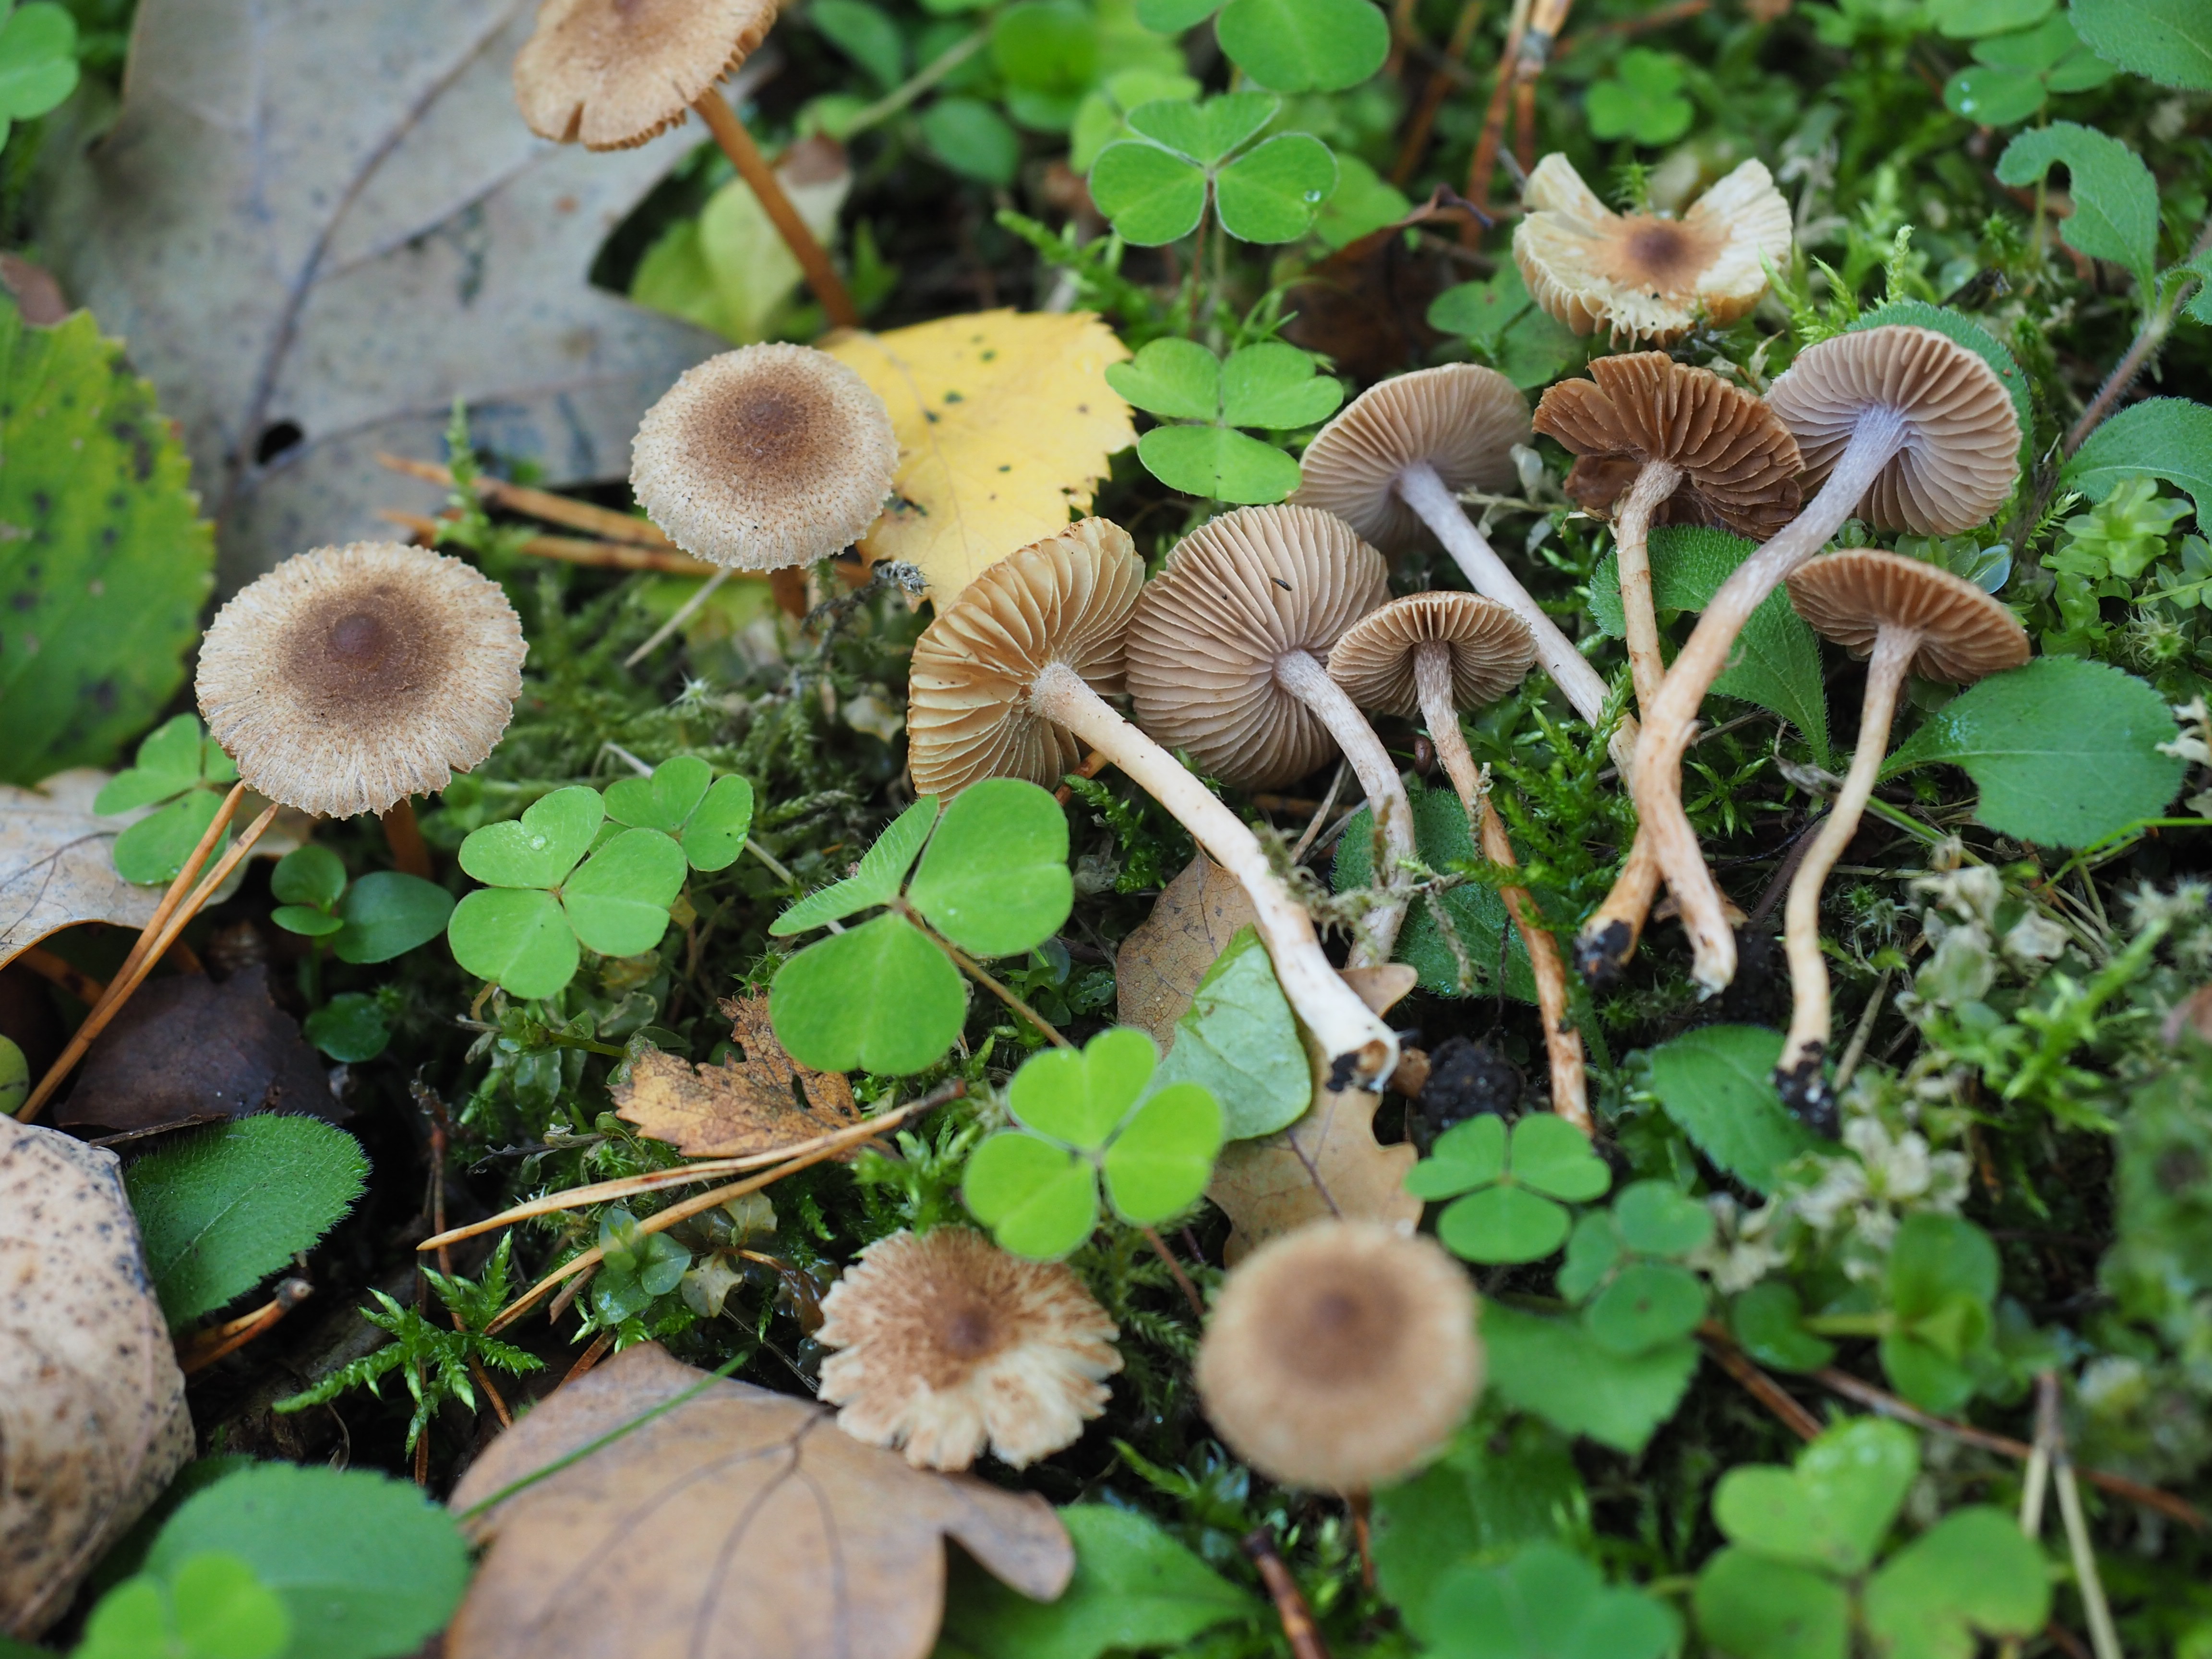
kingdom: Fungi
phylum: Basidiomycota
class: Agaricomycetes
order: Agaricales
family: Inocybaceae
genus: Inocybe
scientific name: Inocybe cincinnata
